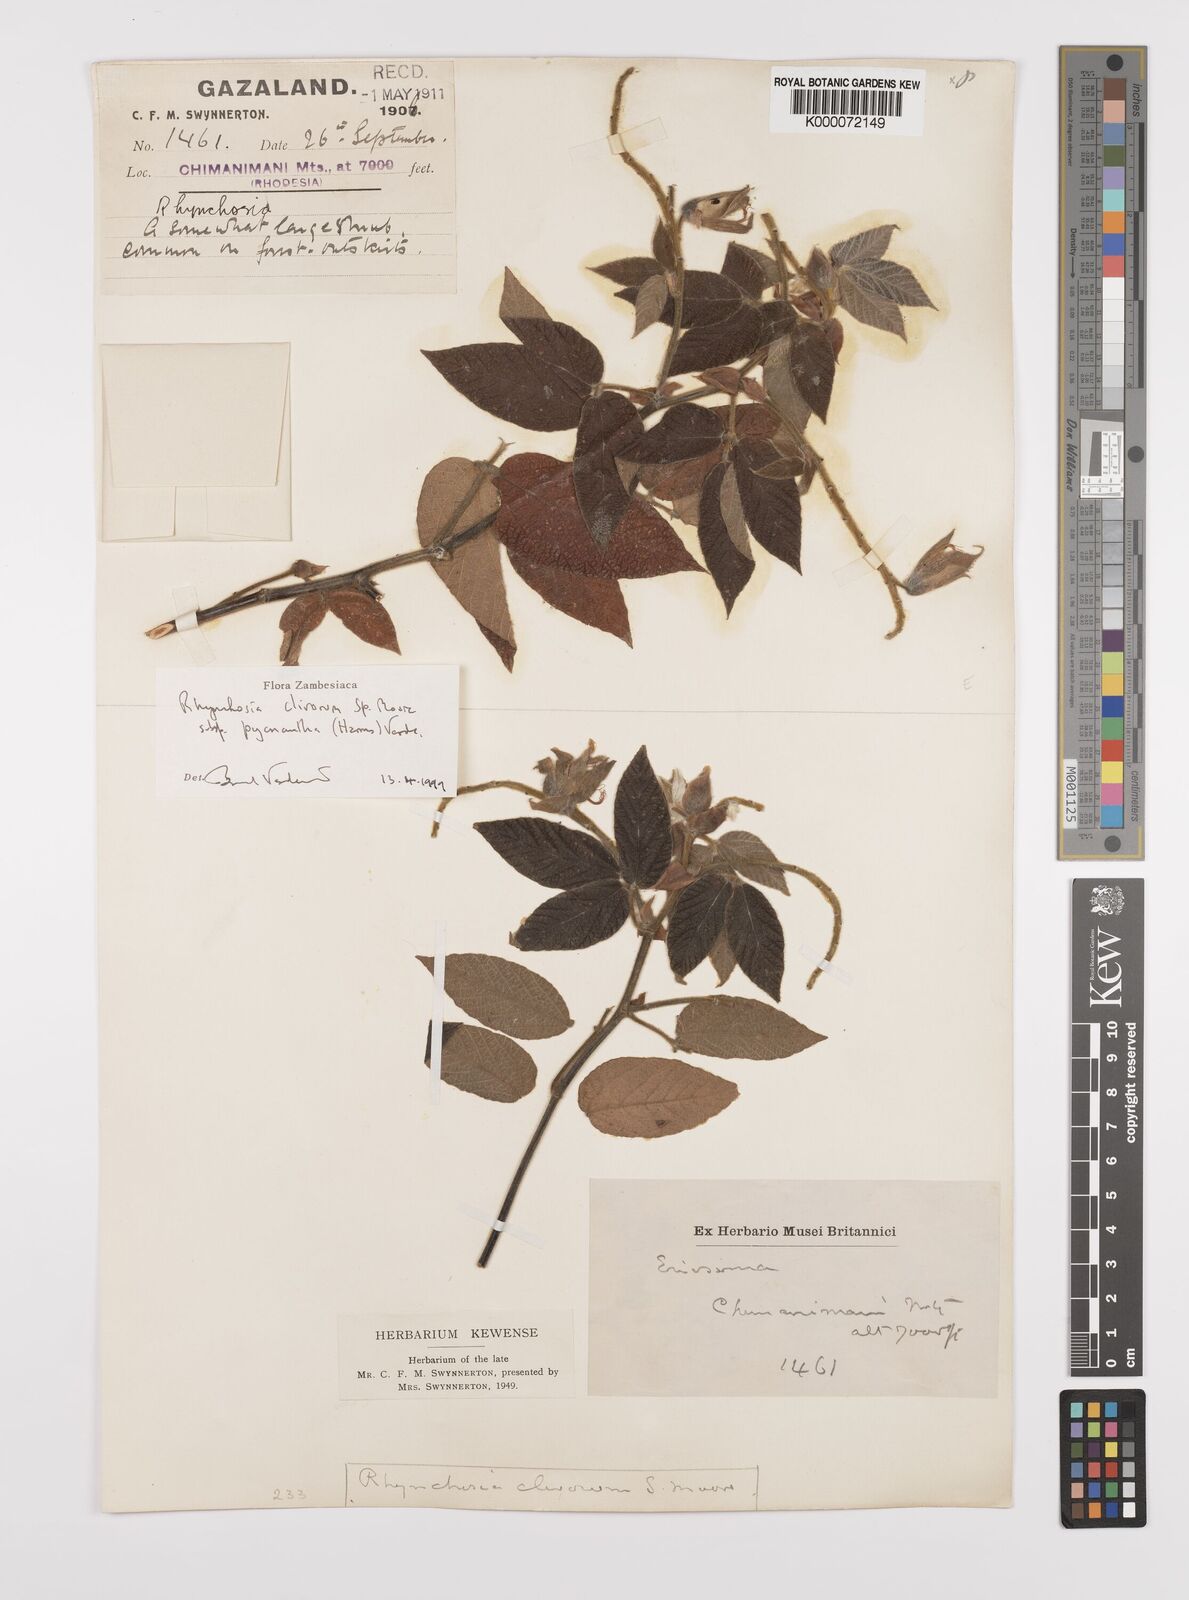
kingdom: Plantae
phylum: Tracheophyta
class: Magnoliopsida
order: Fabales
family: Fabaceae
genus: Rhynchosia
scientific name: Rhynchosia clivorum
